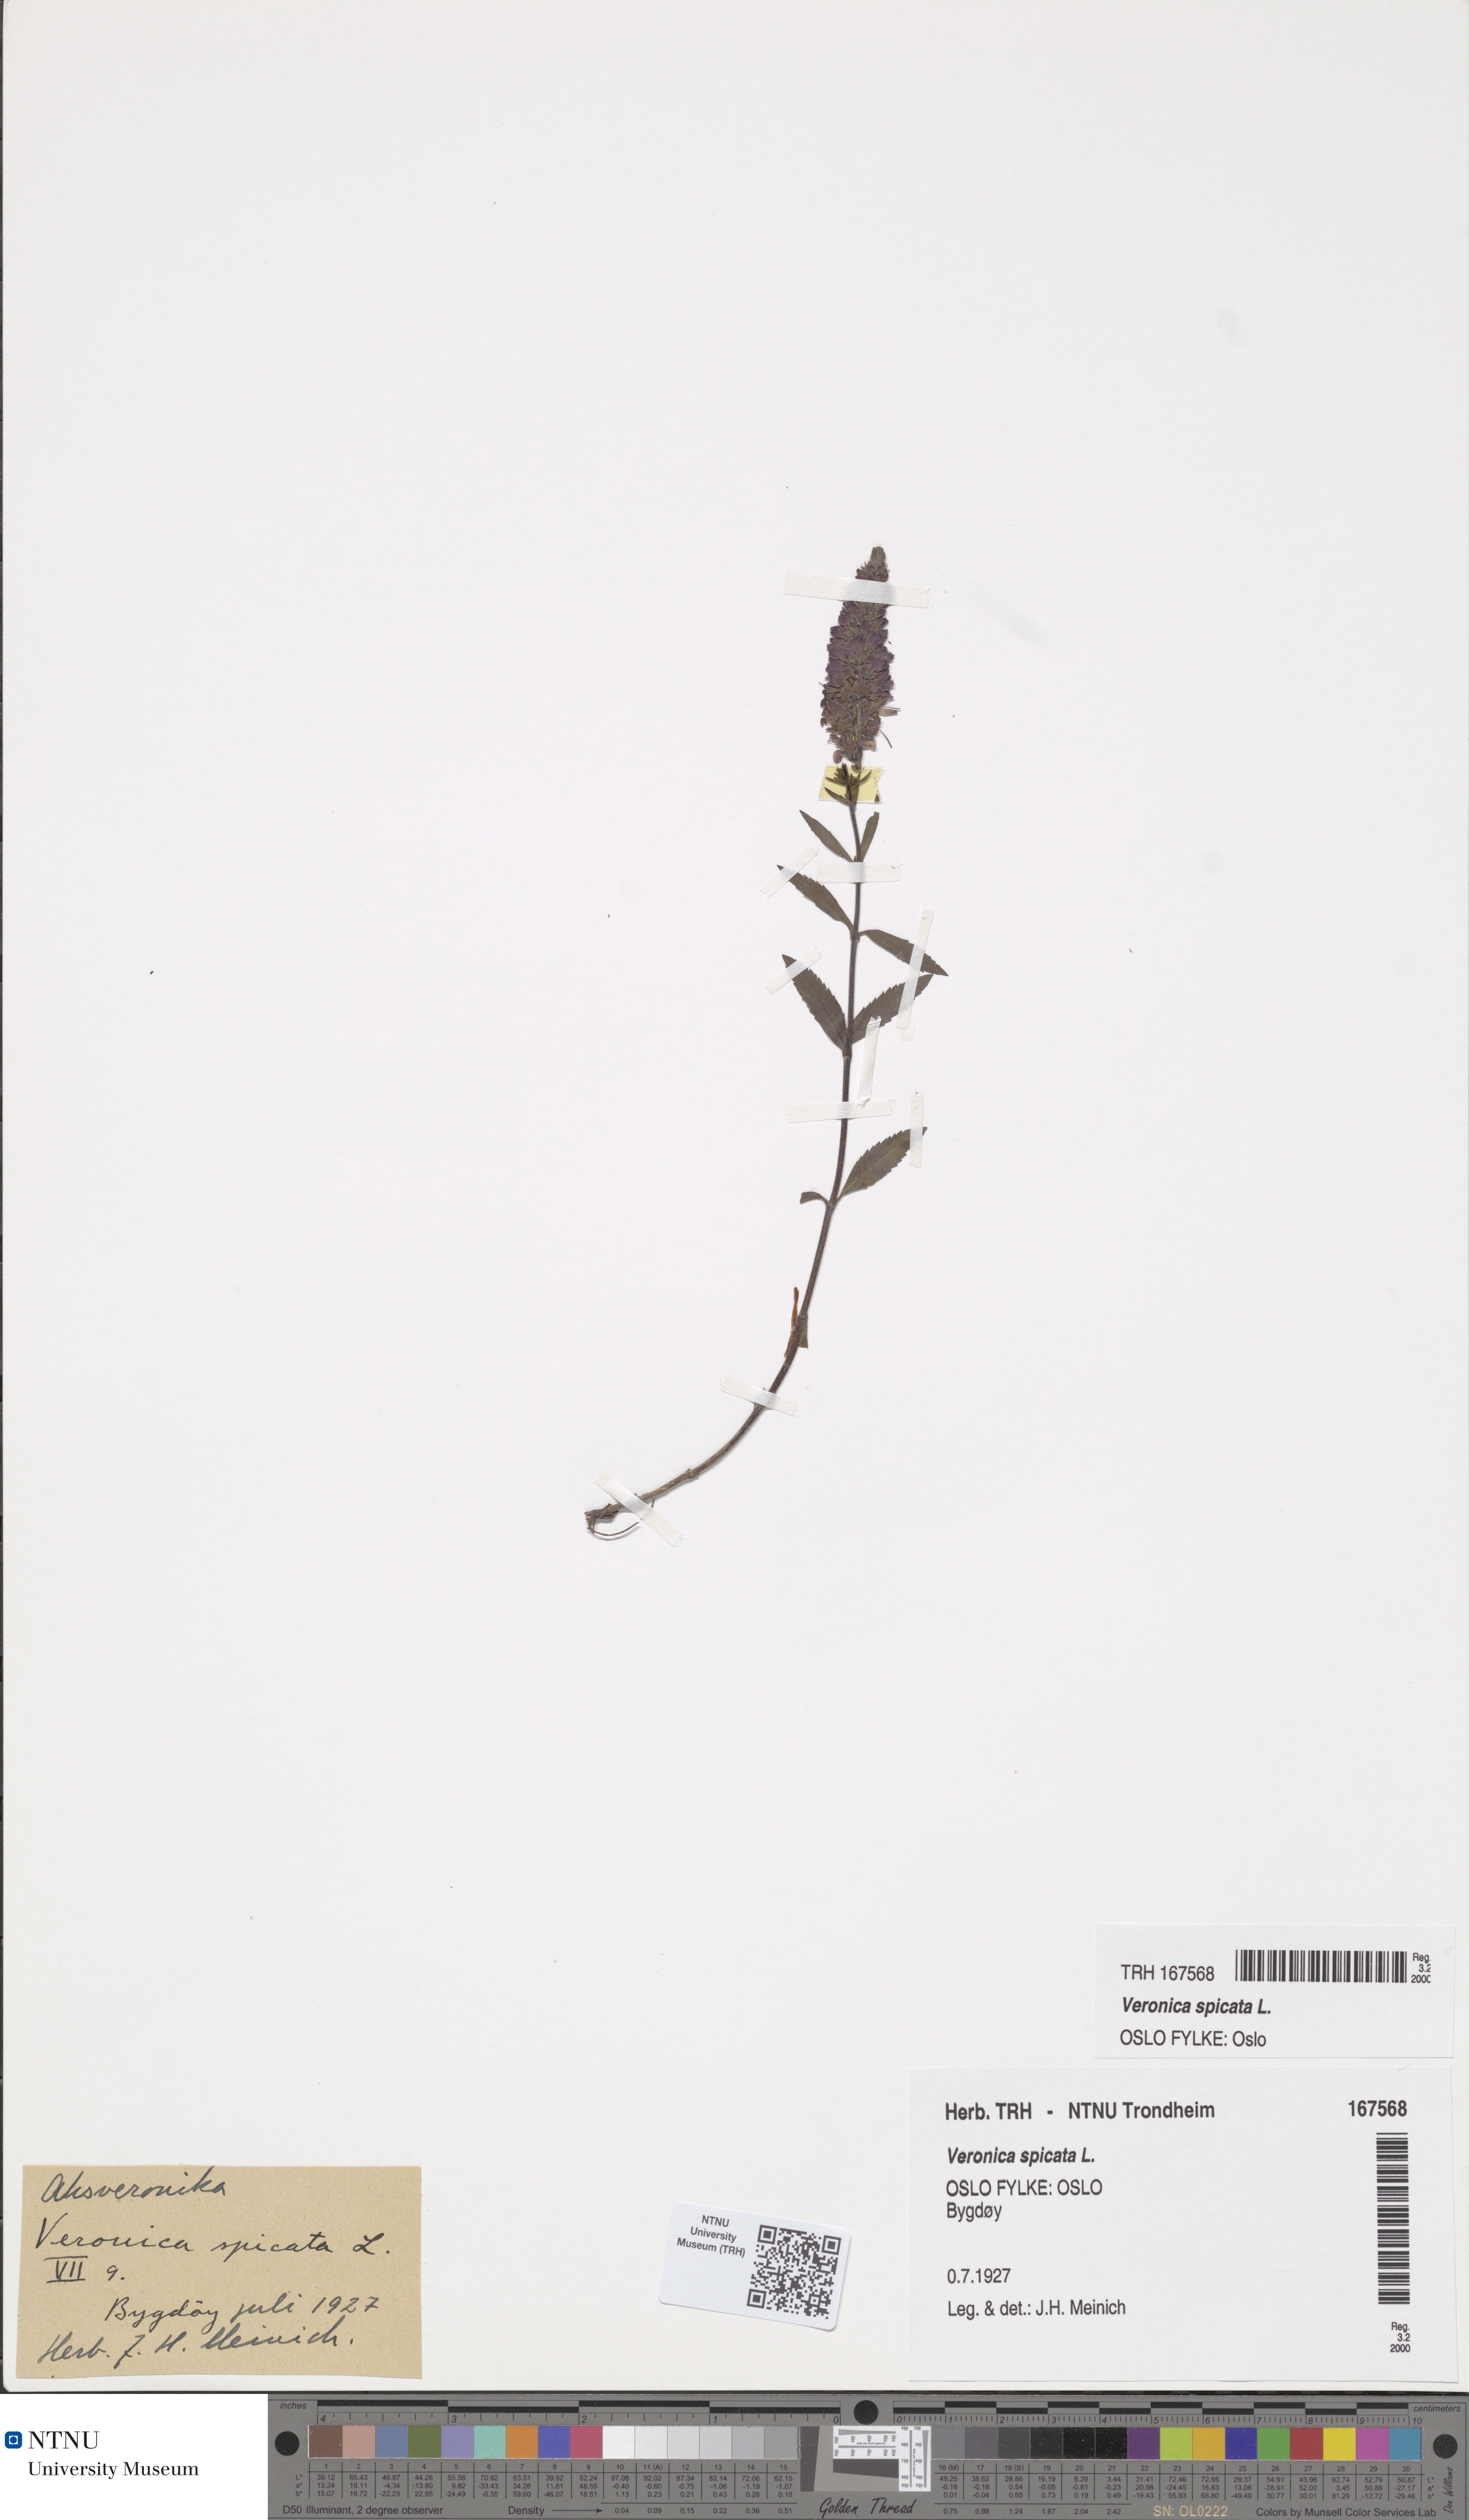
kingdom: Plantae
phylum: Tracheophyta
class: Magnoliopsida
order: Lamiales
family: Plantaginaceae
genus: Veronica
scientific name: Veronica spicata
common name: Spiked speedwell
